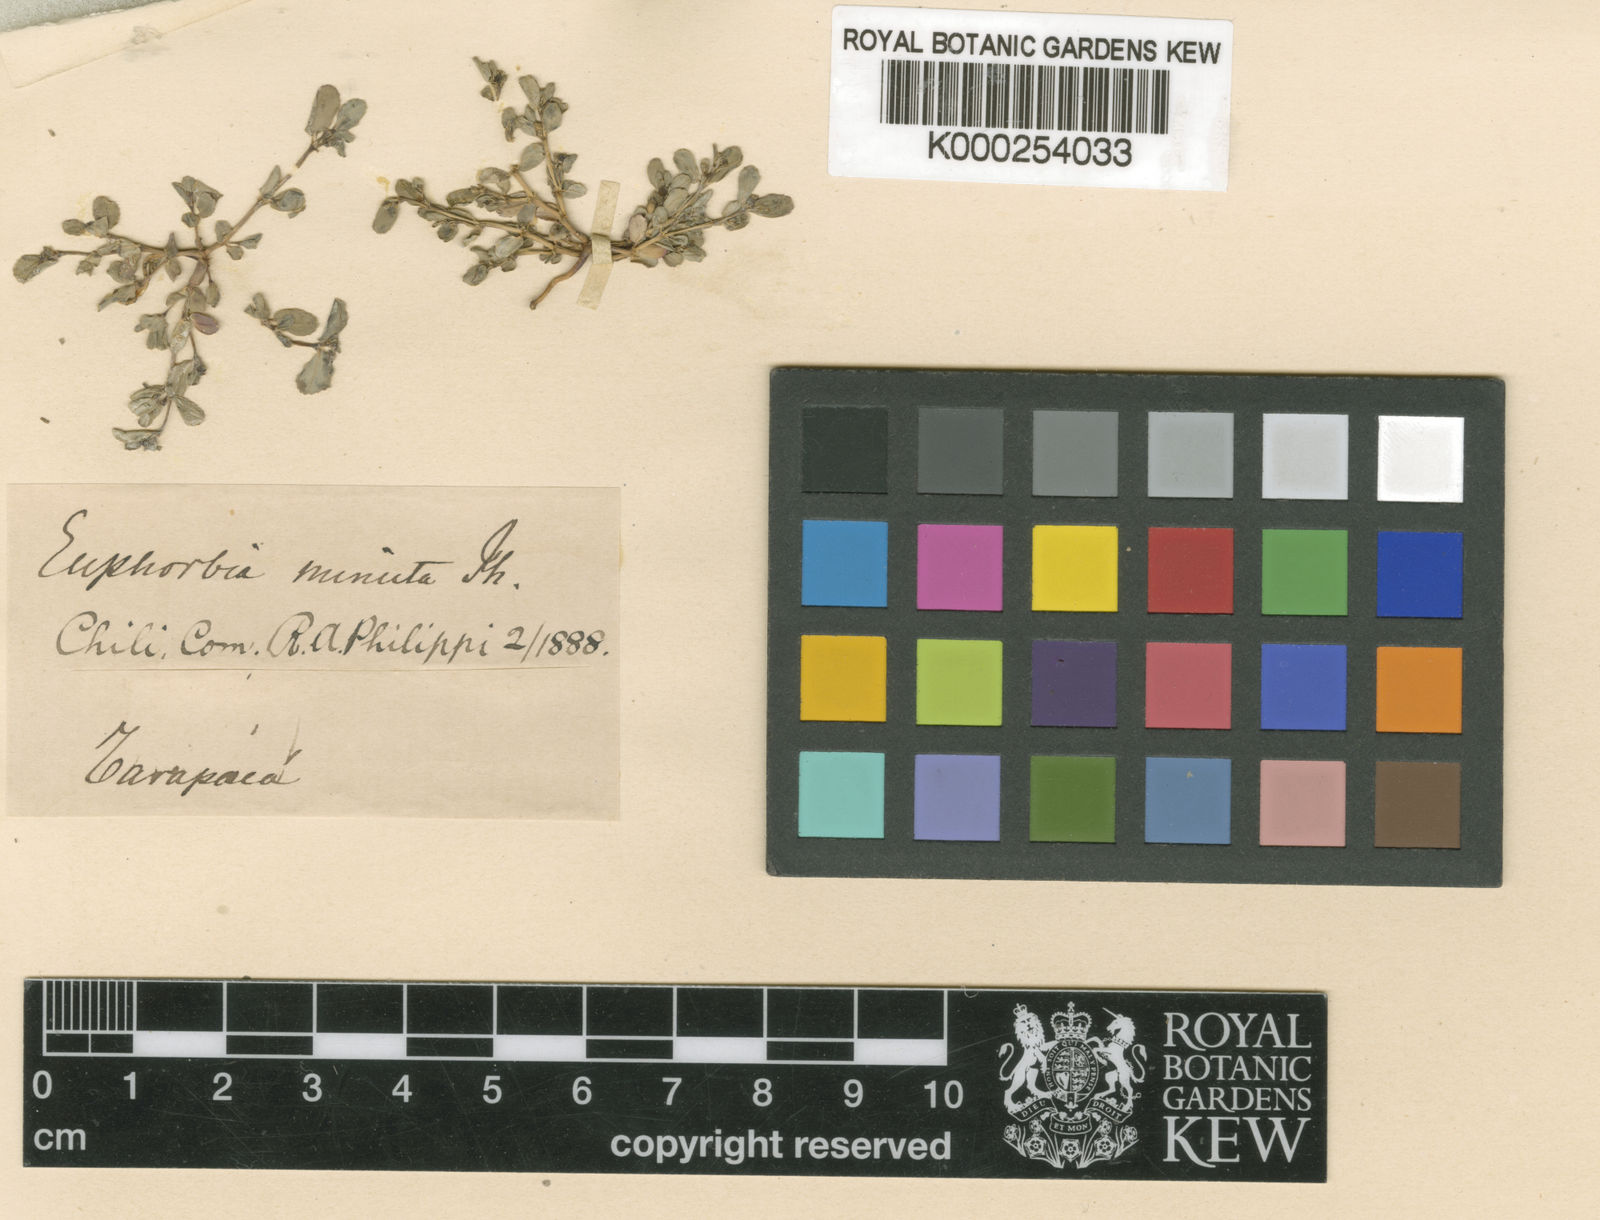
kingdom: Plantae
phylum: Tracheophyta
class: Magnoliopsida
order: Malpighiales
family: Euphorbiaceae
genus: Euphorbia
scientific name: Euphorbia amandi
